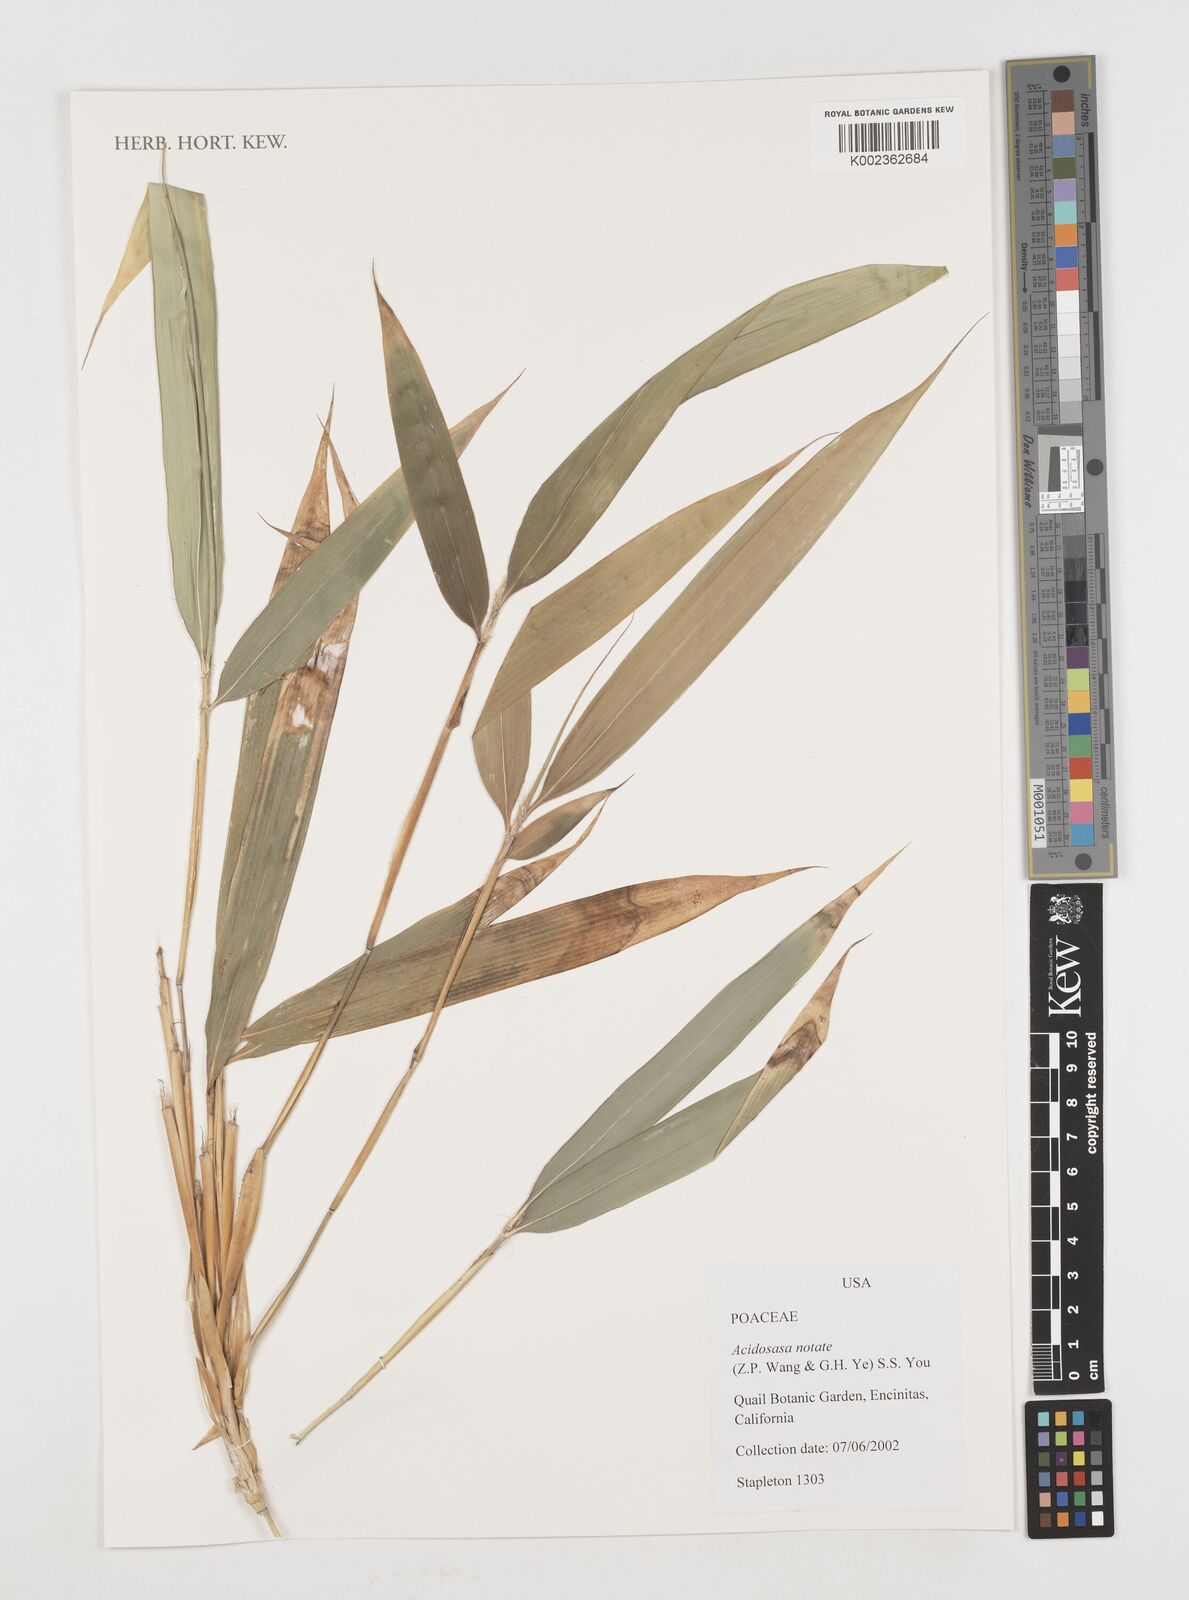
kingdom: Plantae
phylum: Tracheophyta
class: Liliopsida
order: Poales
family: Poaceae
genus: Acidosasa
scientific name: Acidosasa notata
